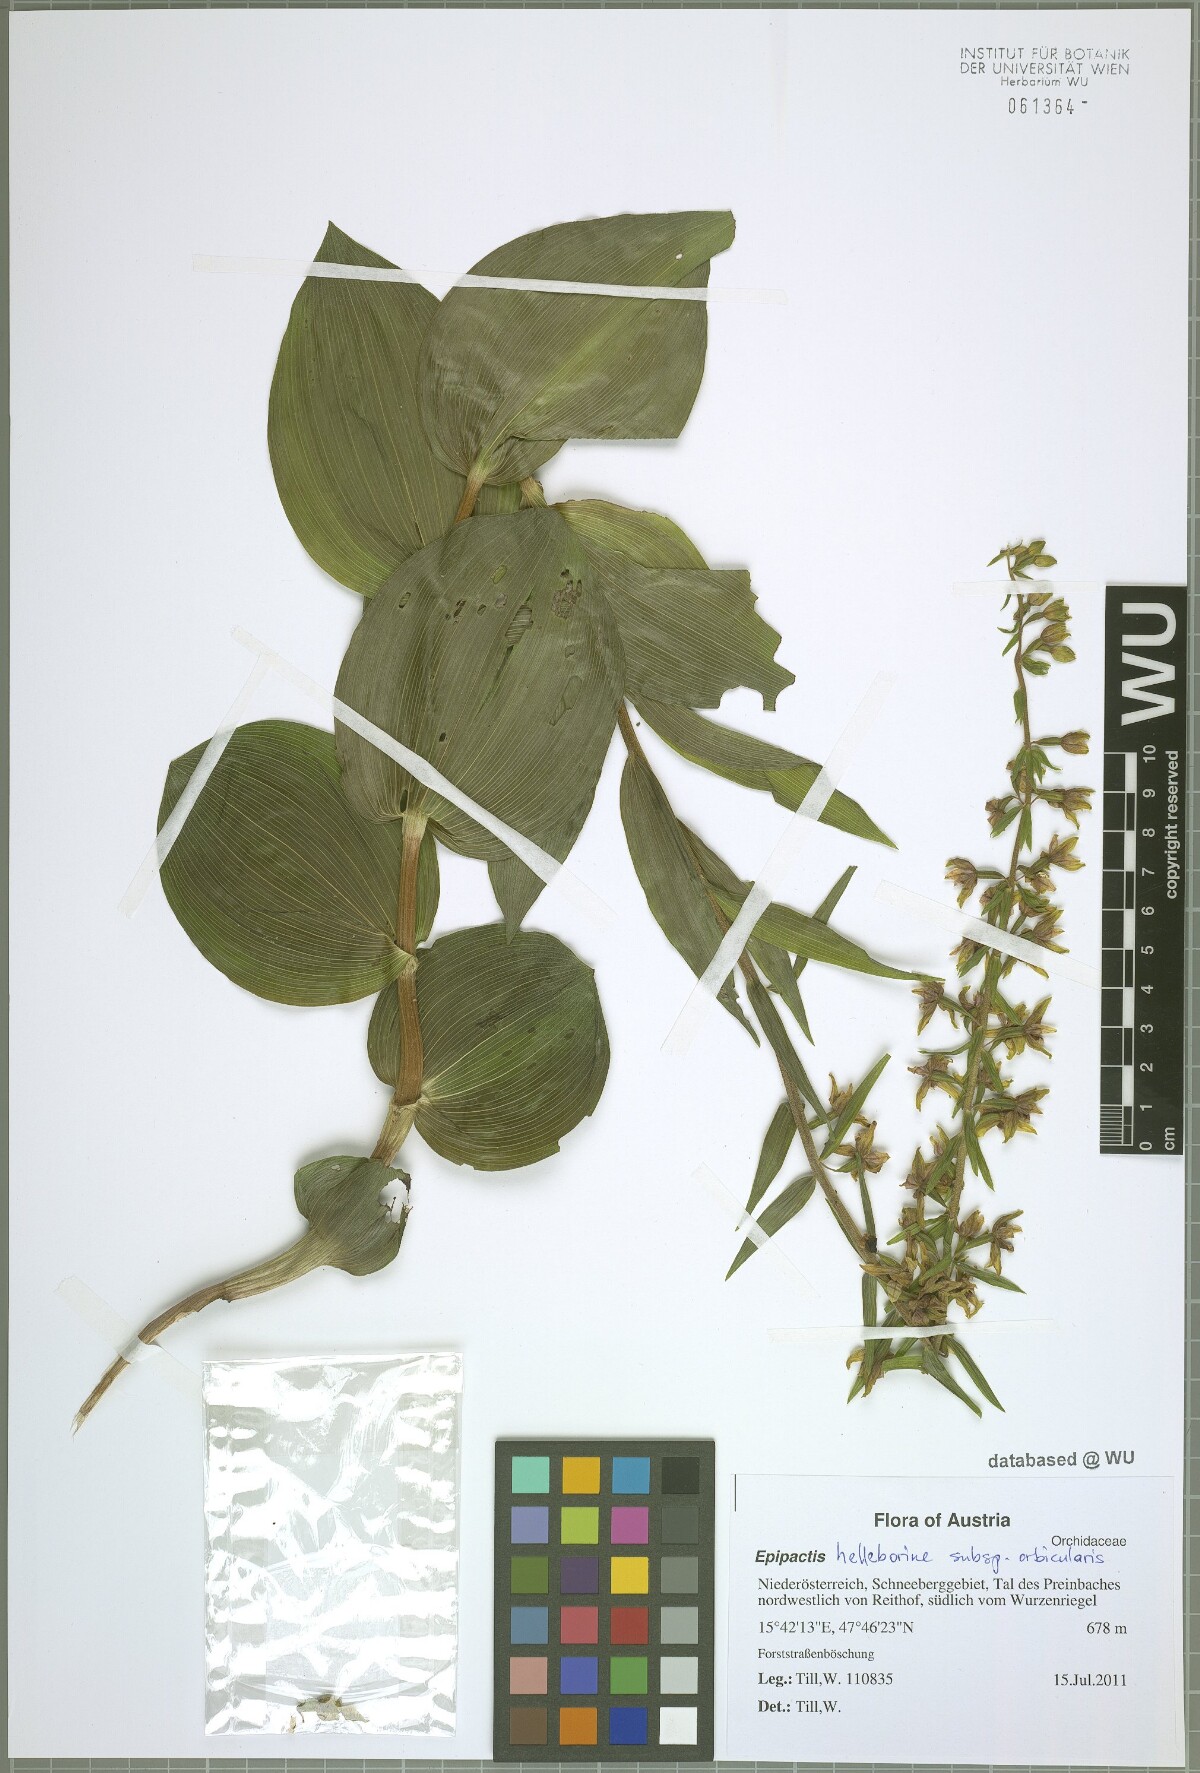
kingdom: Plantae
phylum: Tracheophyta
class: Liliopsida
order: Asparagales
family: Orchidaceae
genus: Epipactis
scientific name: Epipactis helleborine
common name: Broad-leaved helleborine
